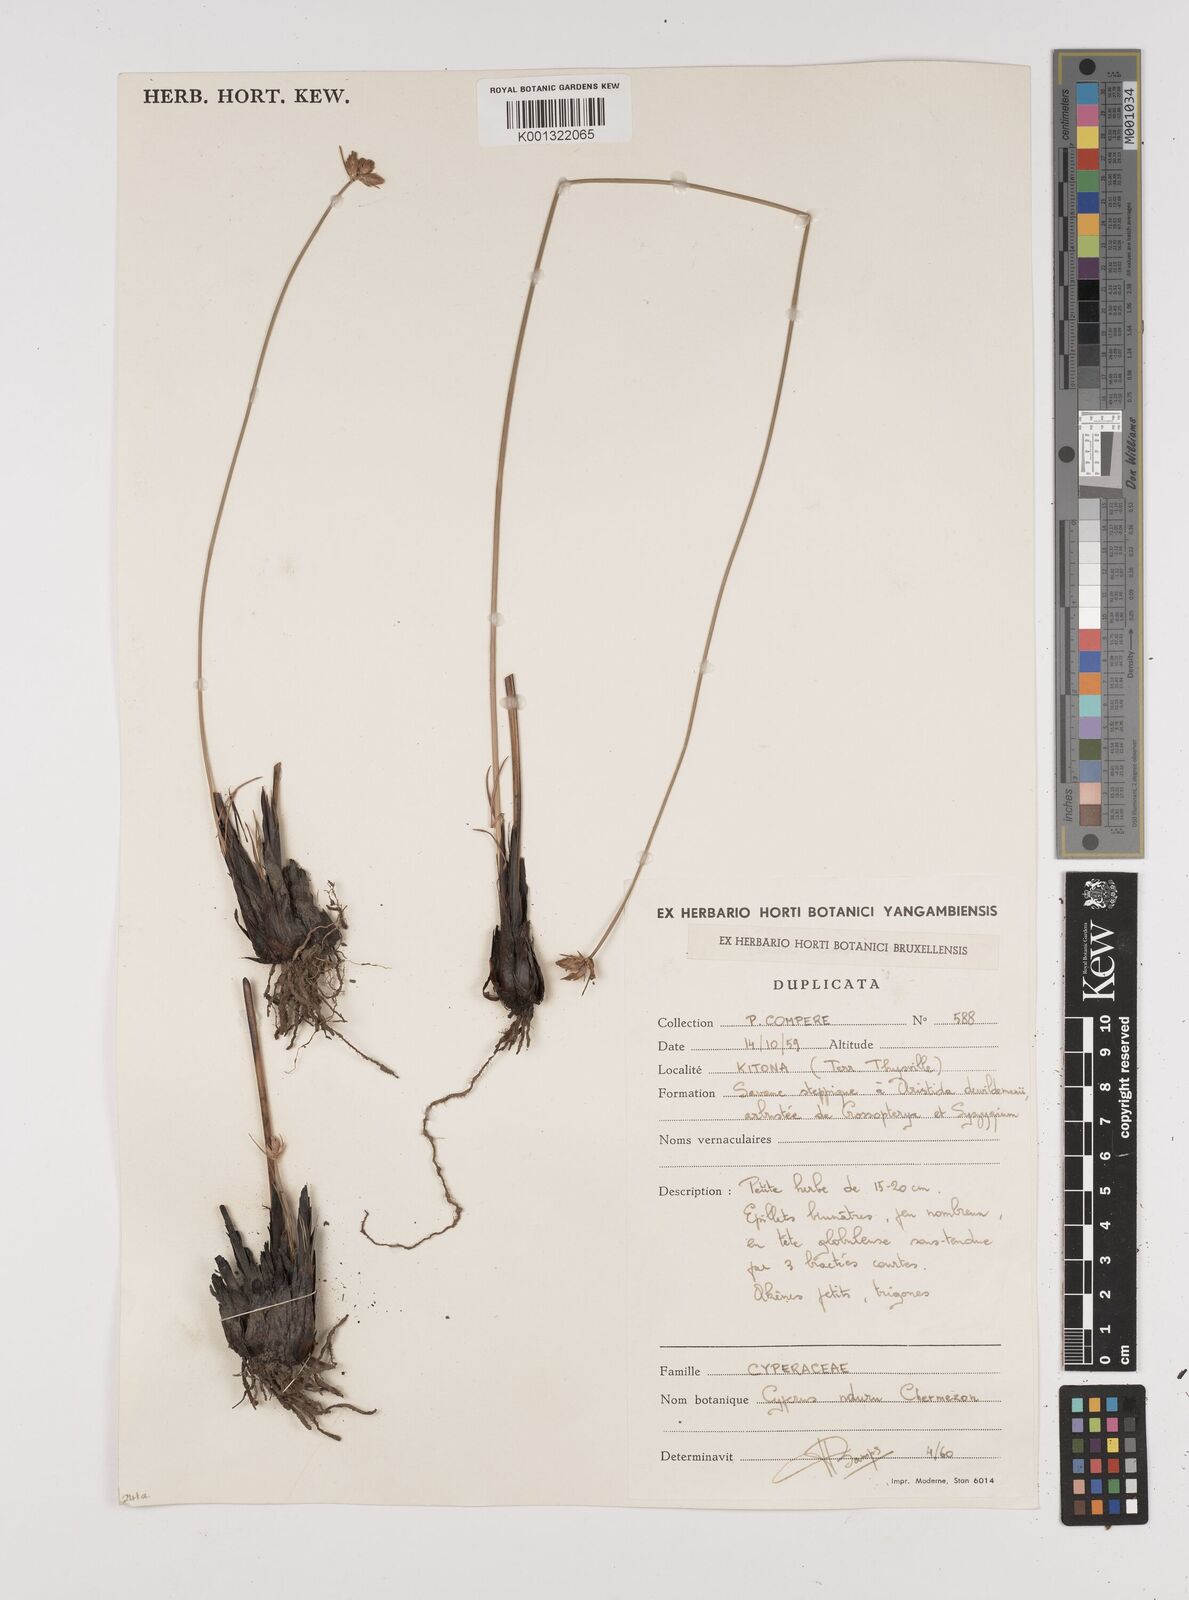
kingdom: Plantae
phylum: Tracheophyta
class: Liliopsida
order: Poales
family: Cyperaceae
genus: Cyperus
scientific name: Cyperus nduru
